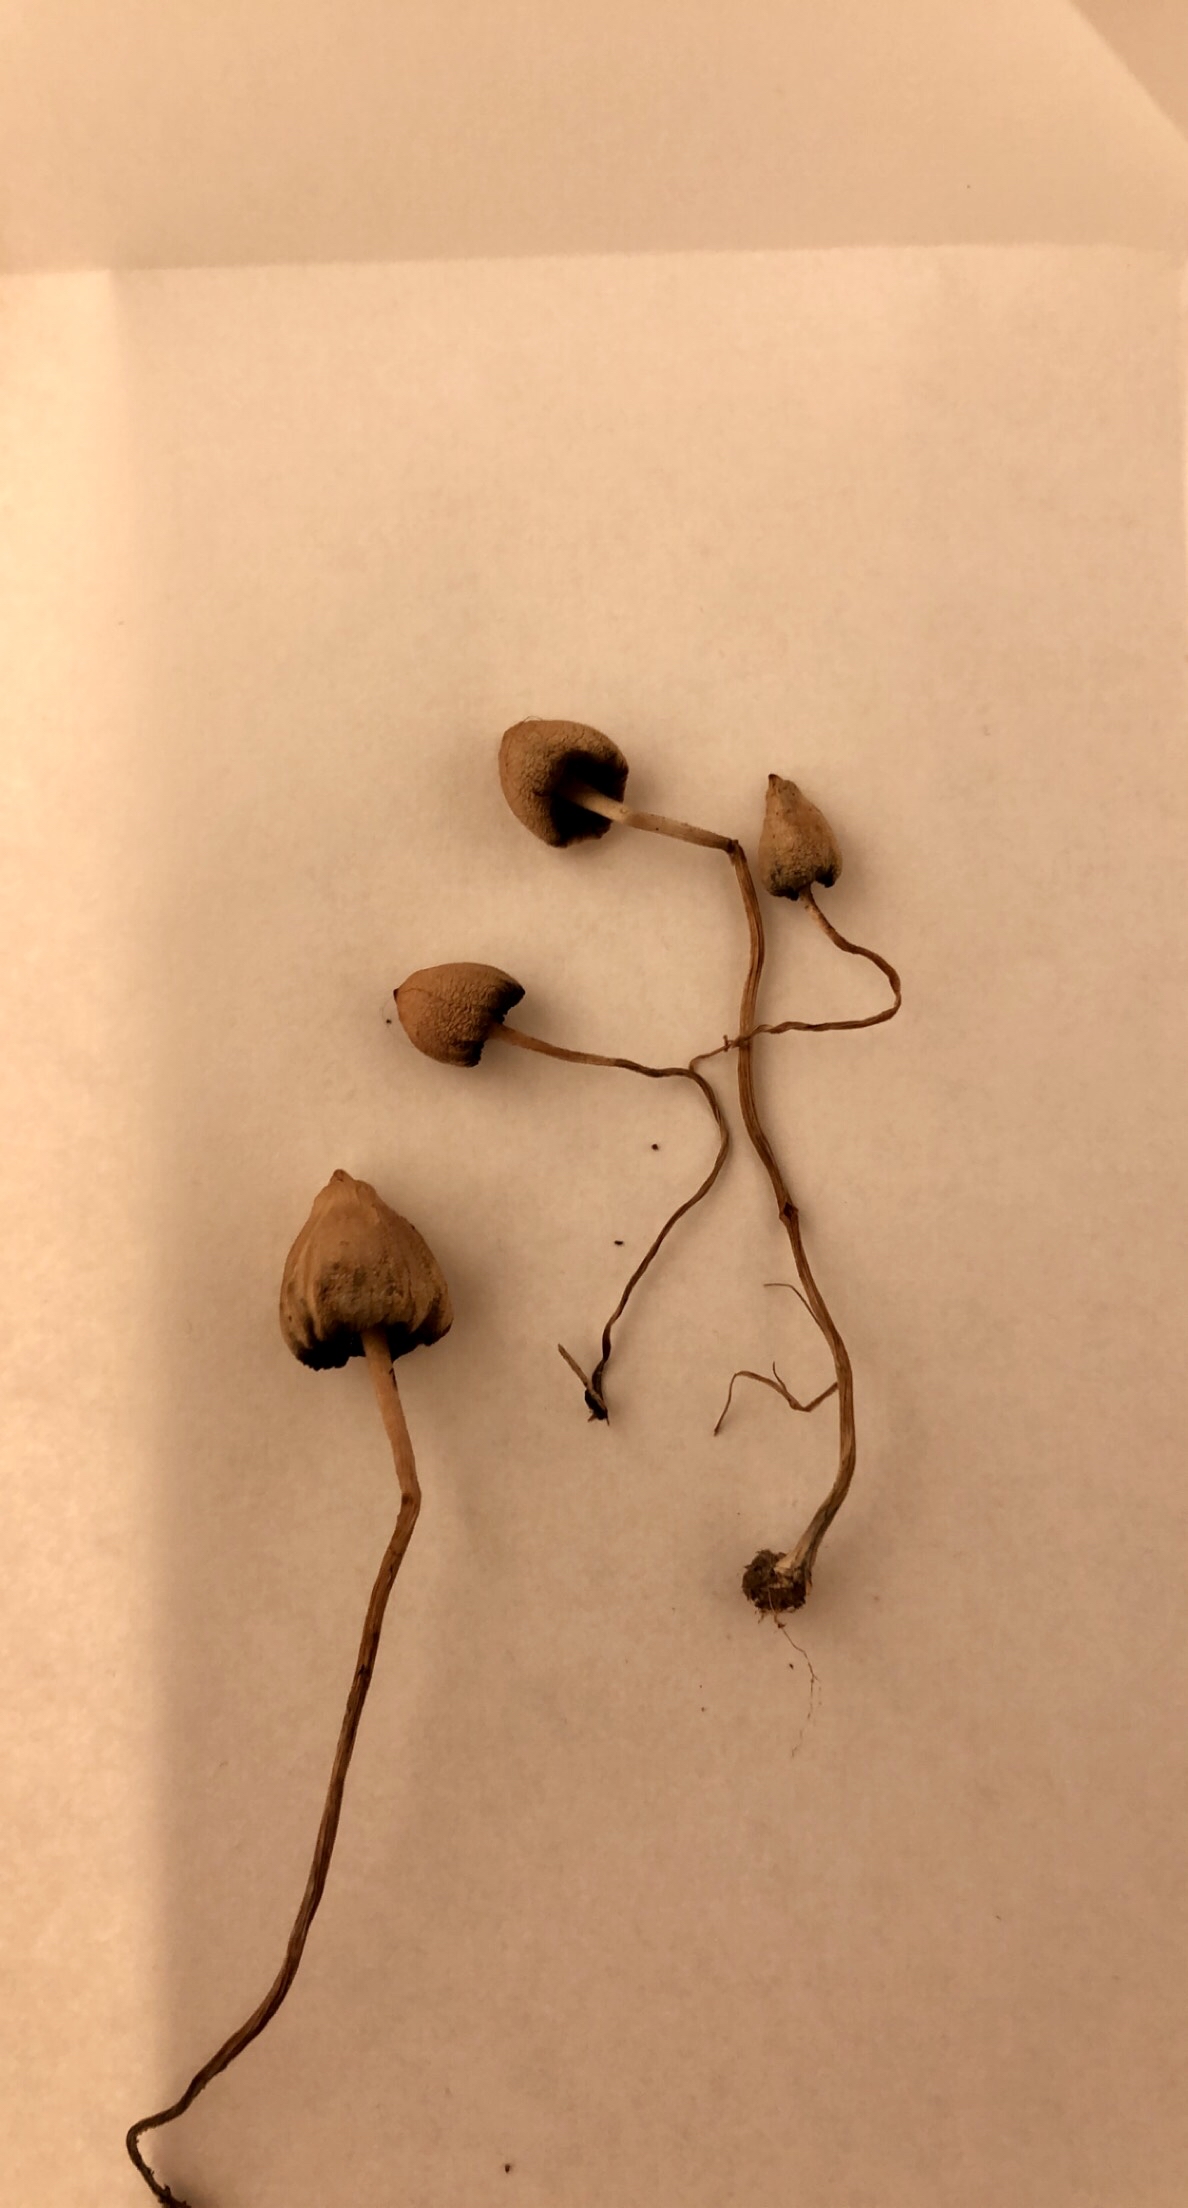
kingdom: Fungi
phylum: Basidiomycota
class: Agaricomycetes
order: Agaricales
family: Hymenogastraceae
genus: Psilocybe
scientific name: Psilocybe semilanceata
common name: spids nøgenhat
